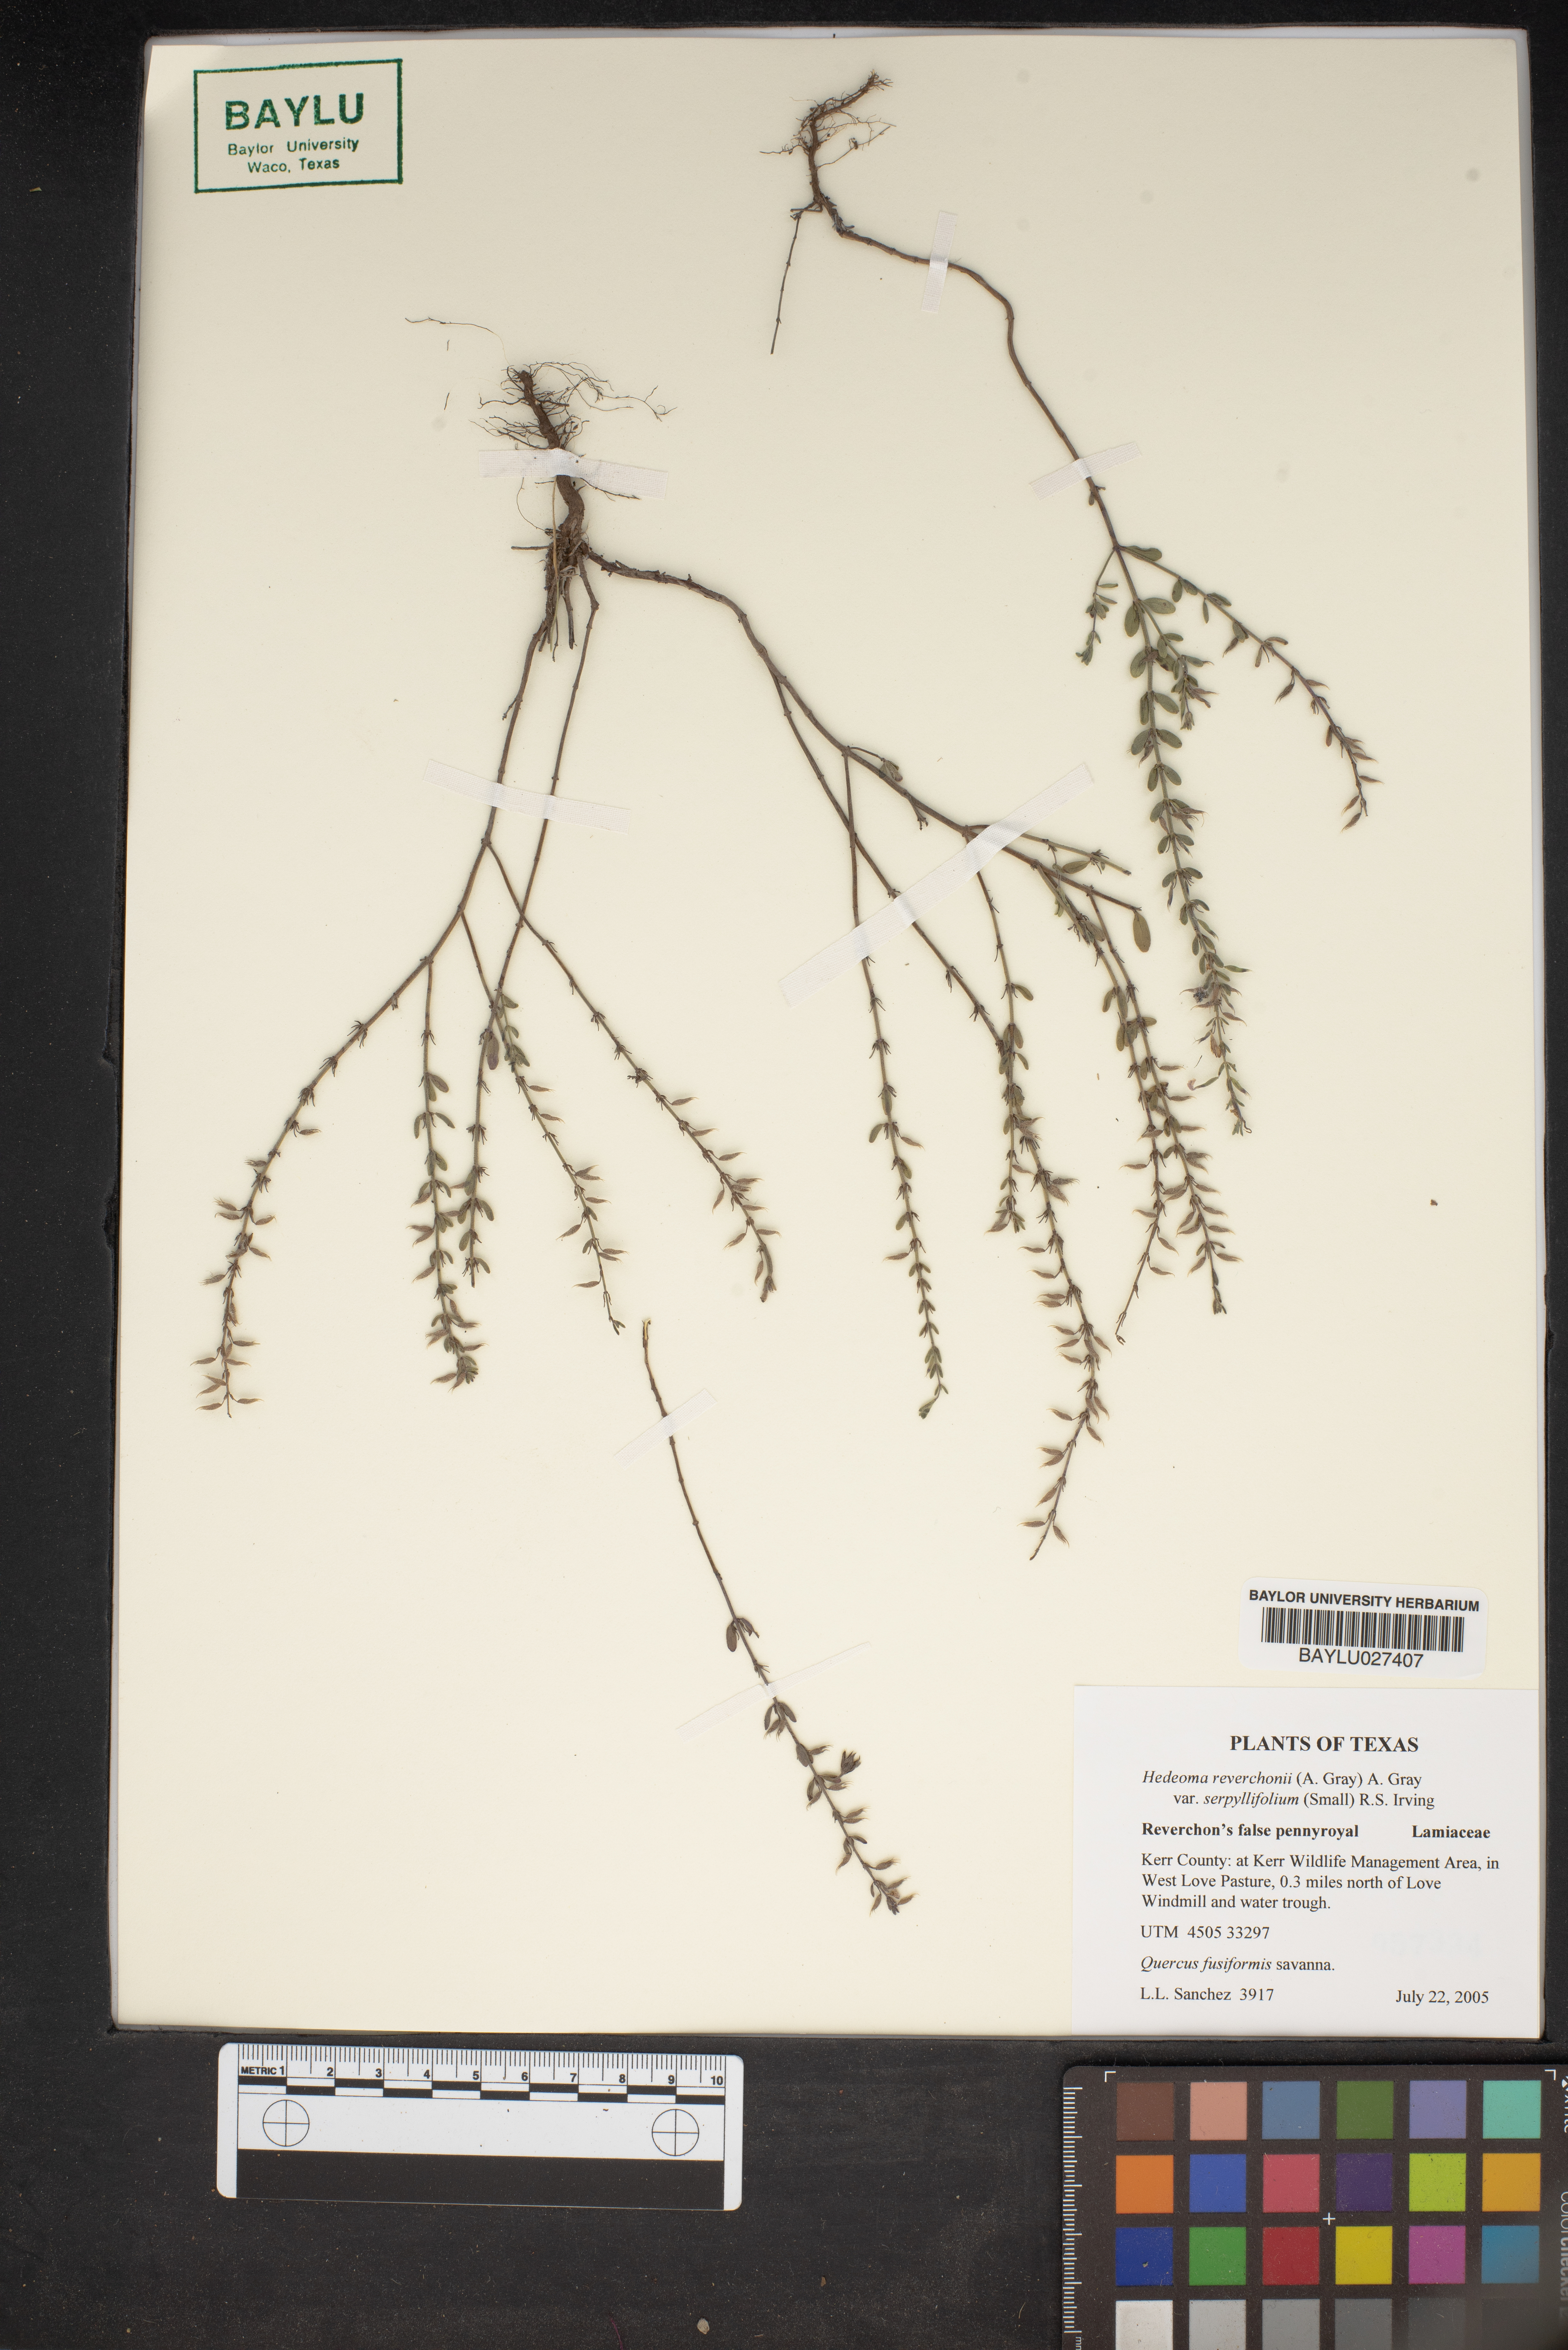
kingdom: Plantae
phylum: Tracheophyta
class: Magnoliopsida
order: Lamiales
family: Lamiaceae
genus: Hedeoma
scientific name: Hedeoma serpyllifolia
